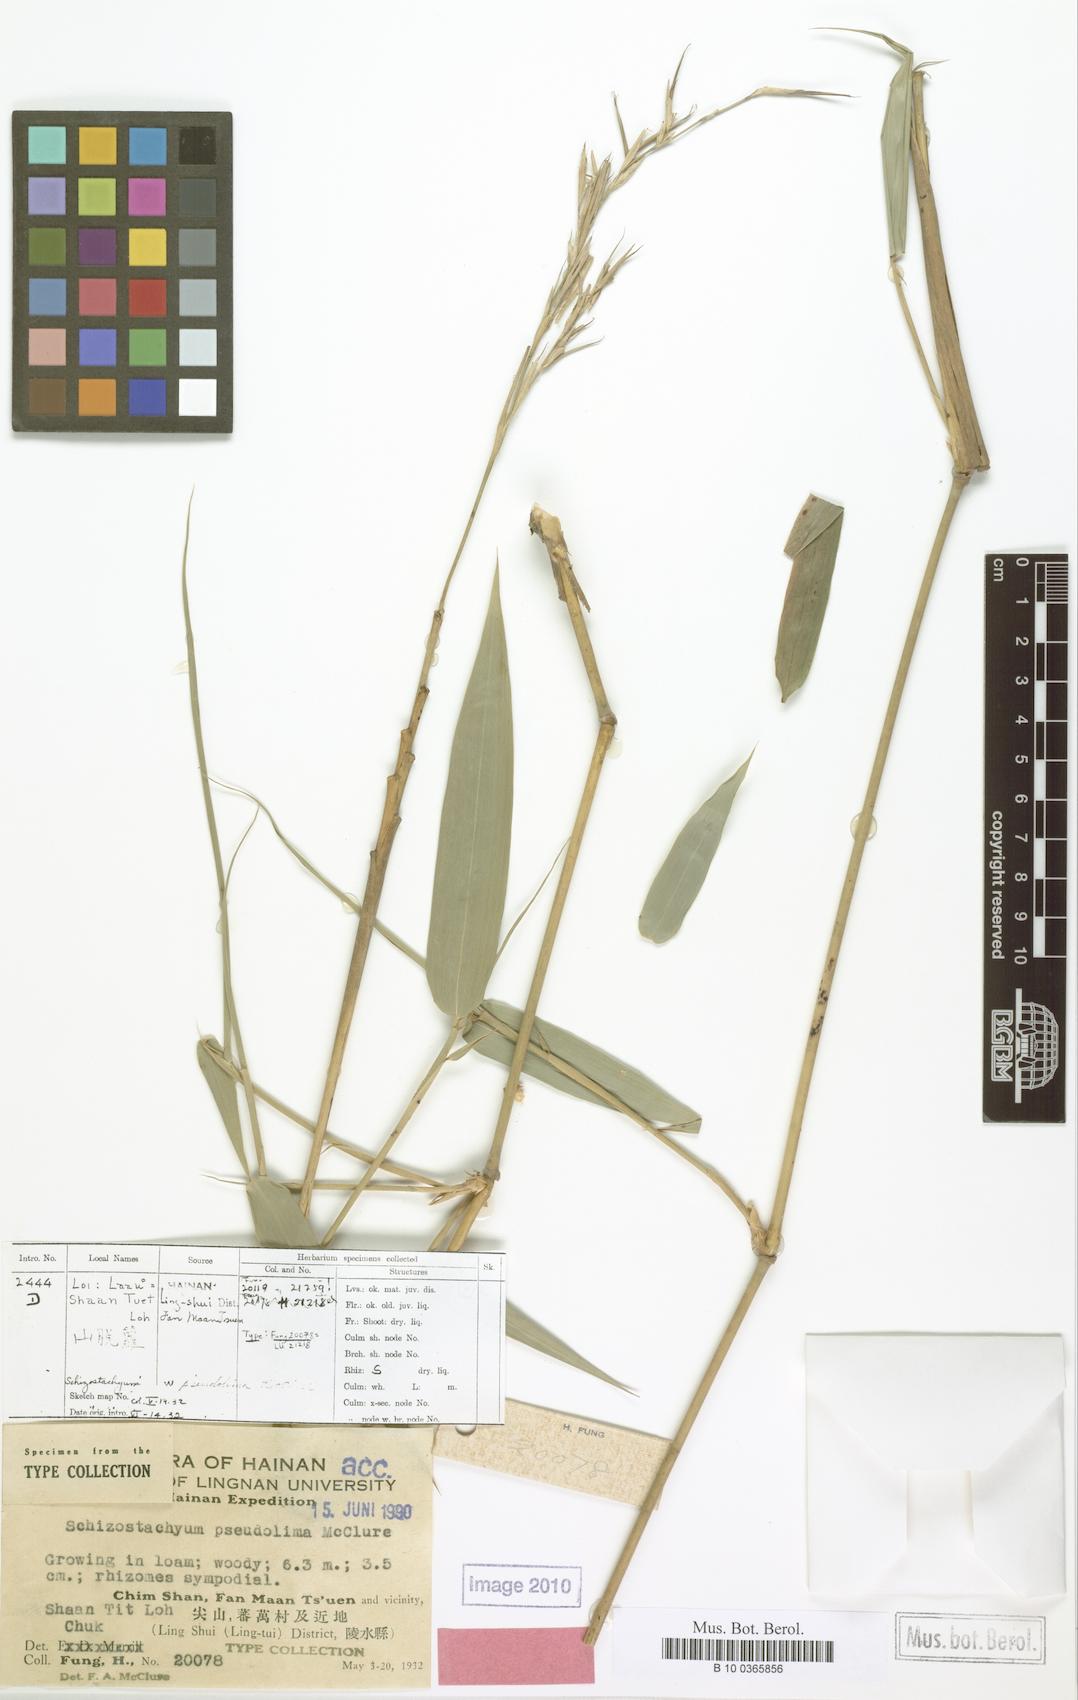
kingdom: Plantae
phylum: Tracheophyta
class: Liliopsida
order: Poales
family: Poaceae
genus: Schizostachyum
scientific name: Schizostachyum pseudolima
